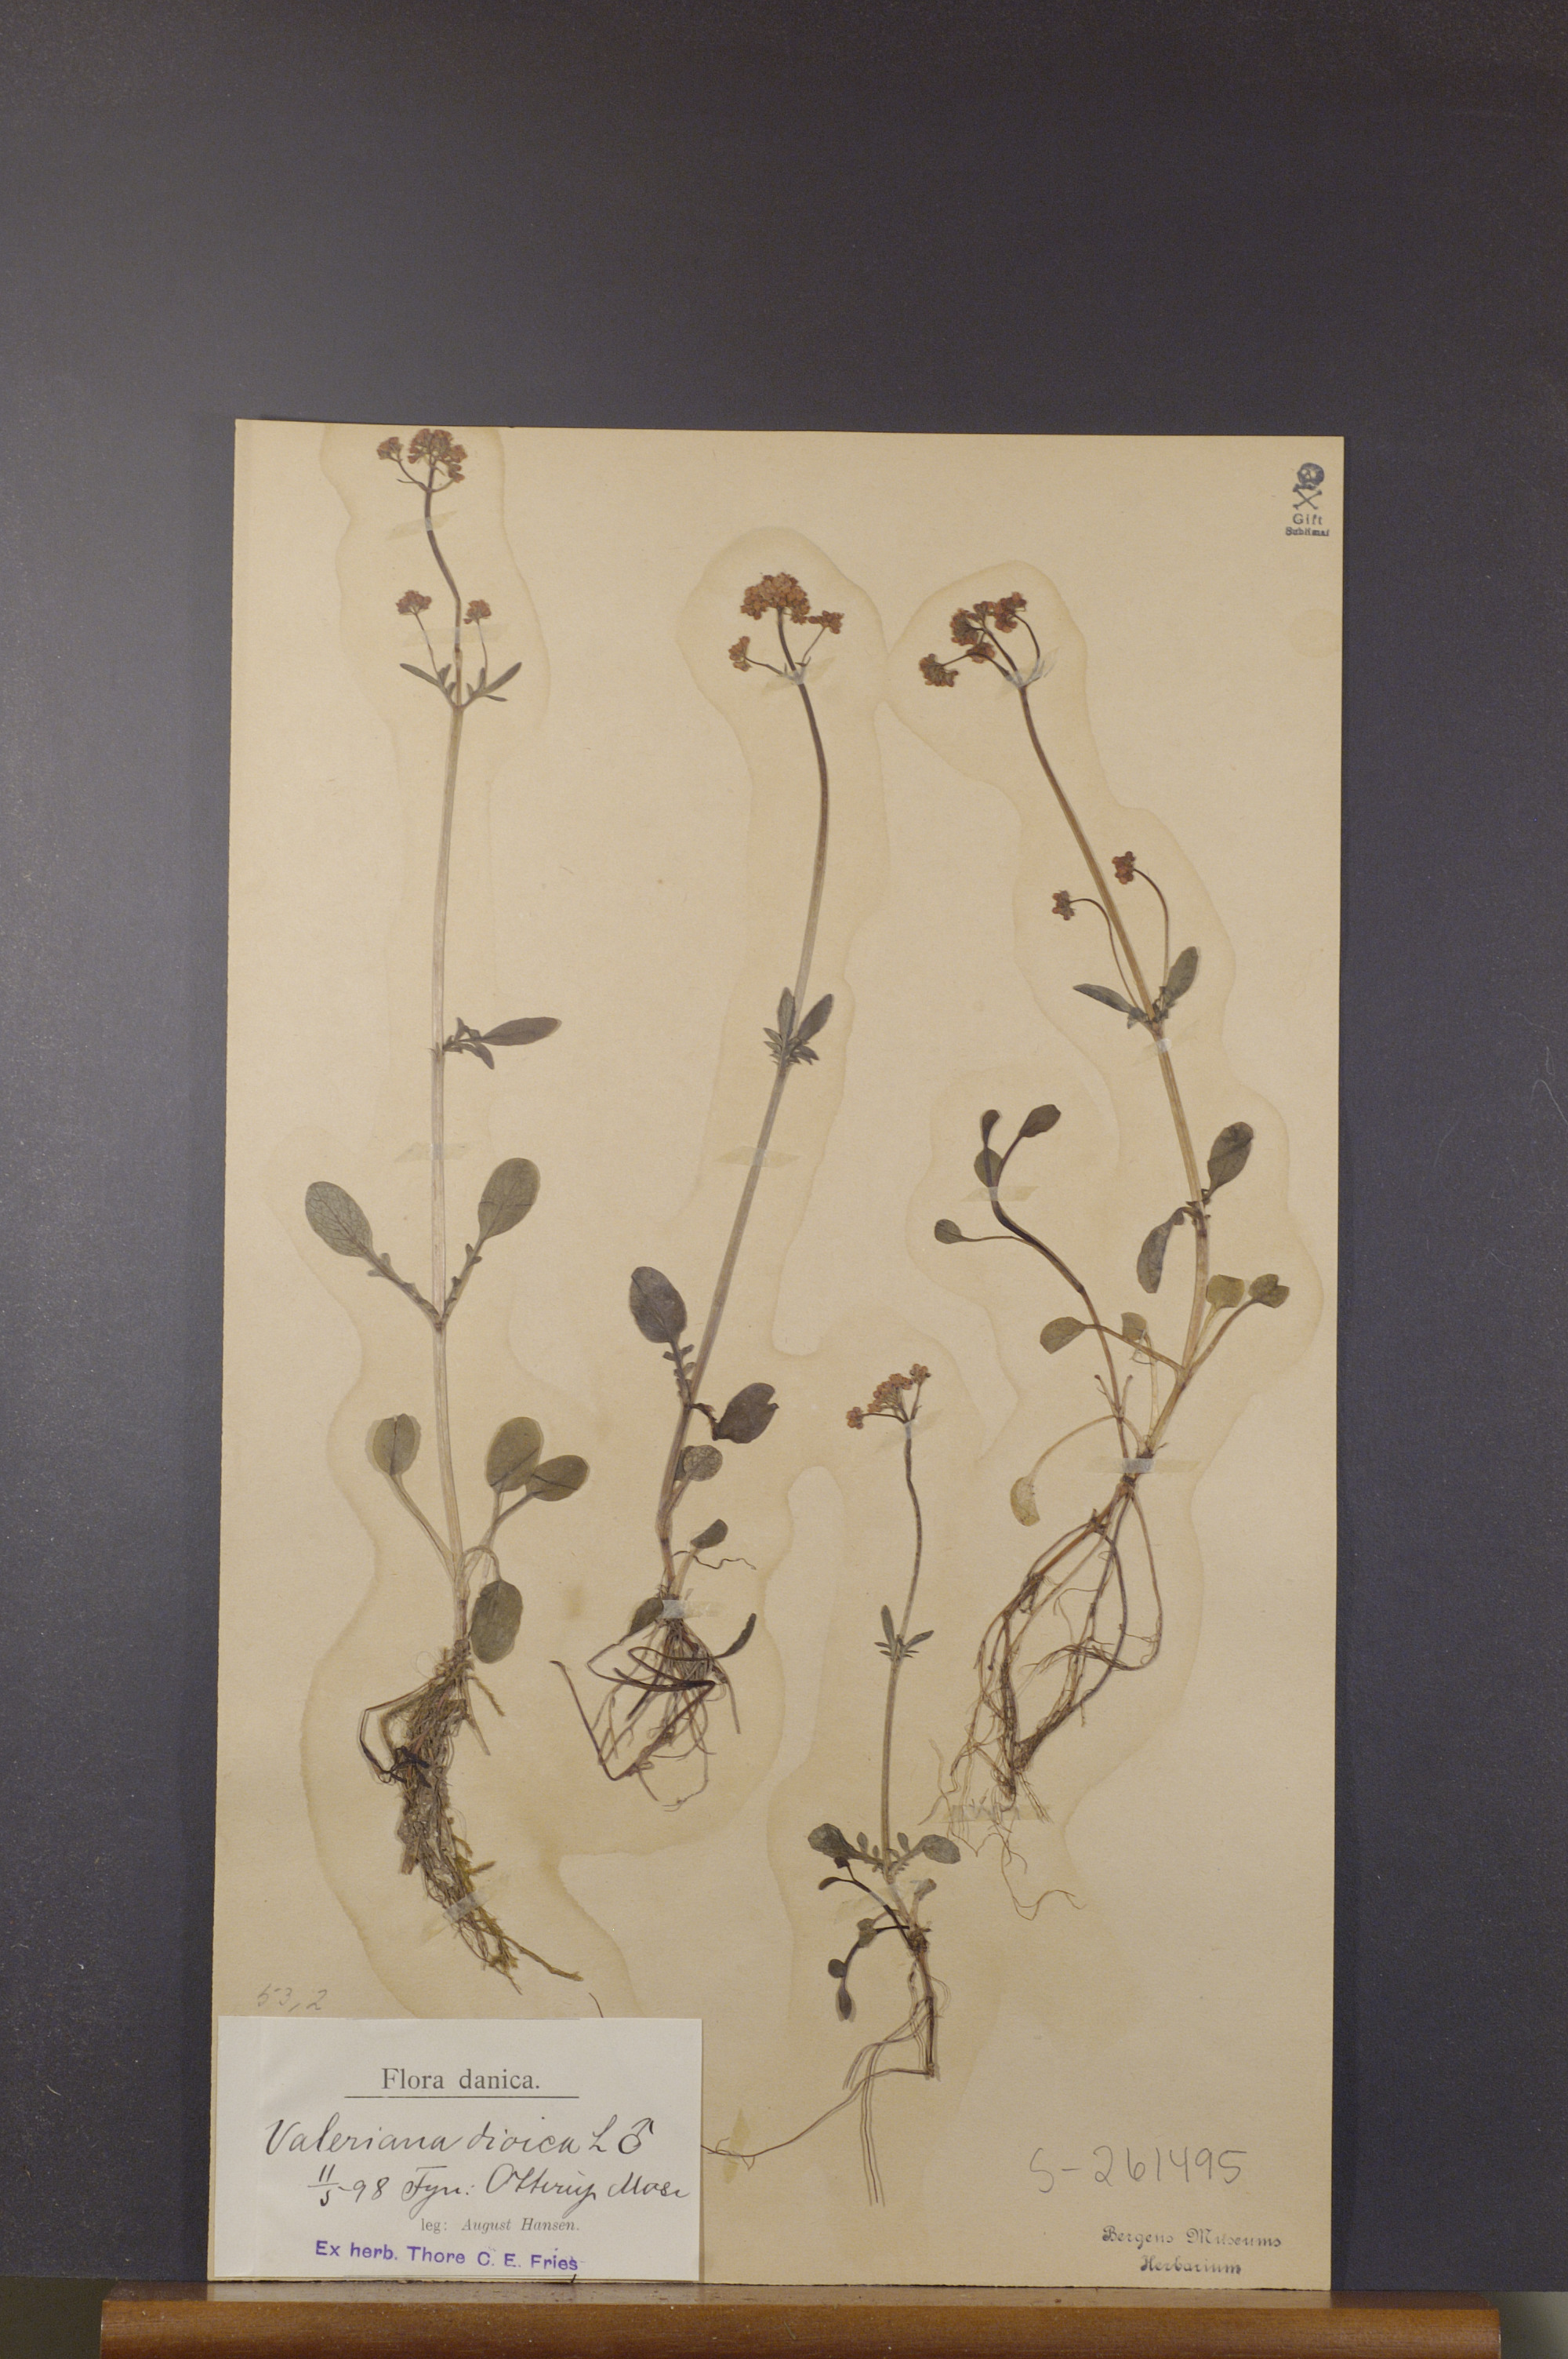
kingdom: Plantae
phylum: Tracheophyta
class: Magnoliopsida
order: Dipsacales
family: Caprifoliaceae
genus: Valeriana
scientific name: Valeriana dioica
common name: Marsh valerian
